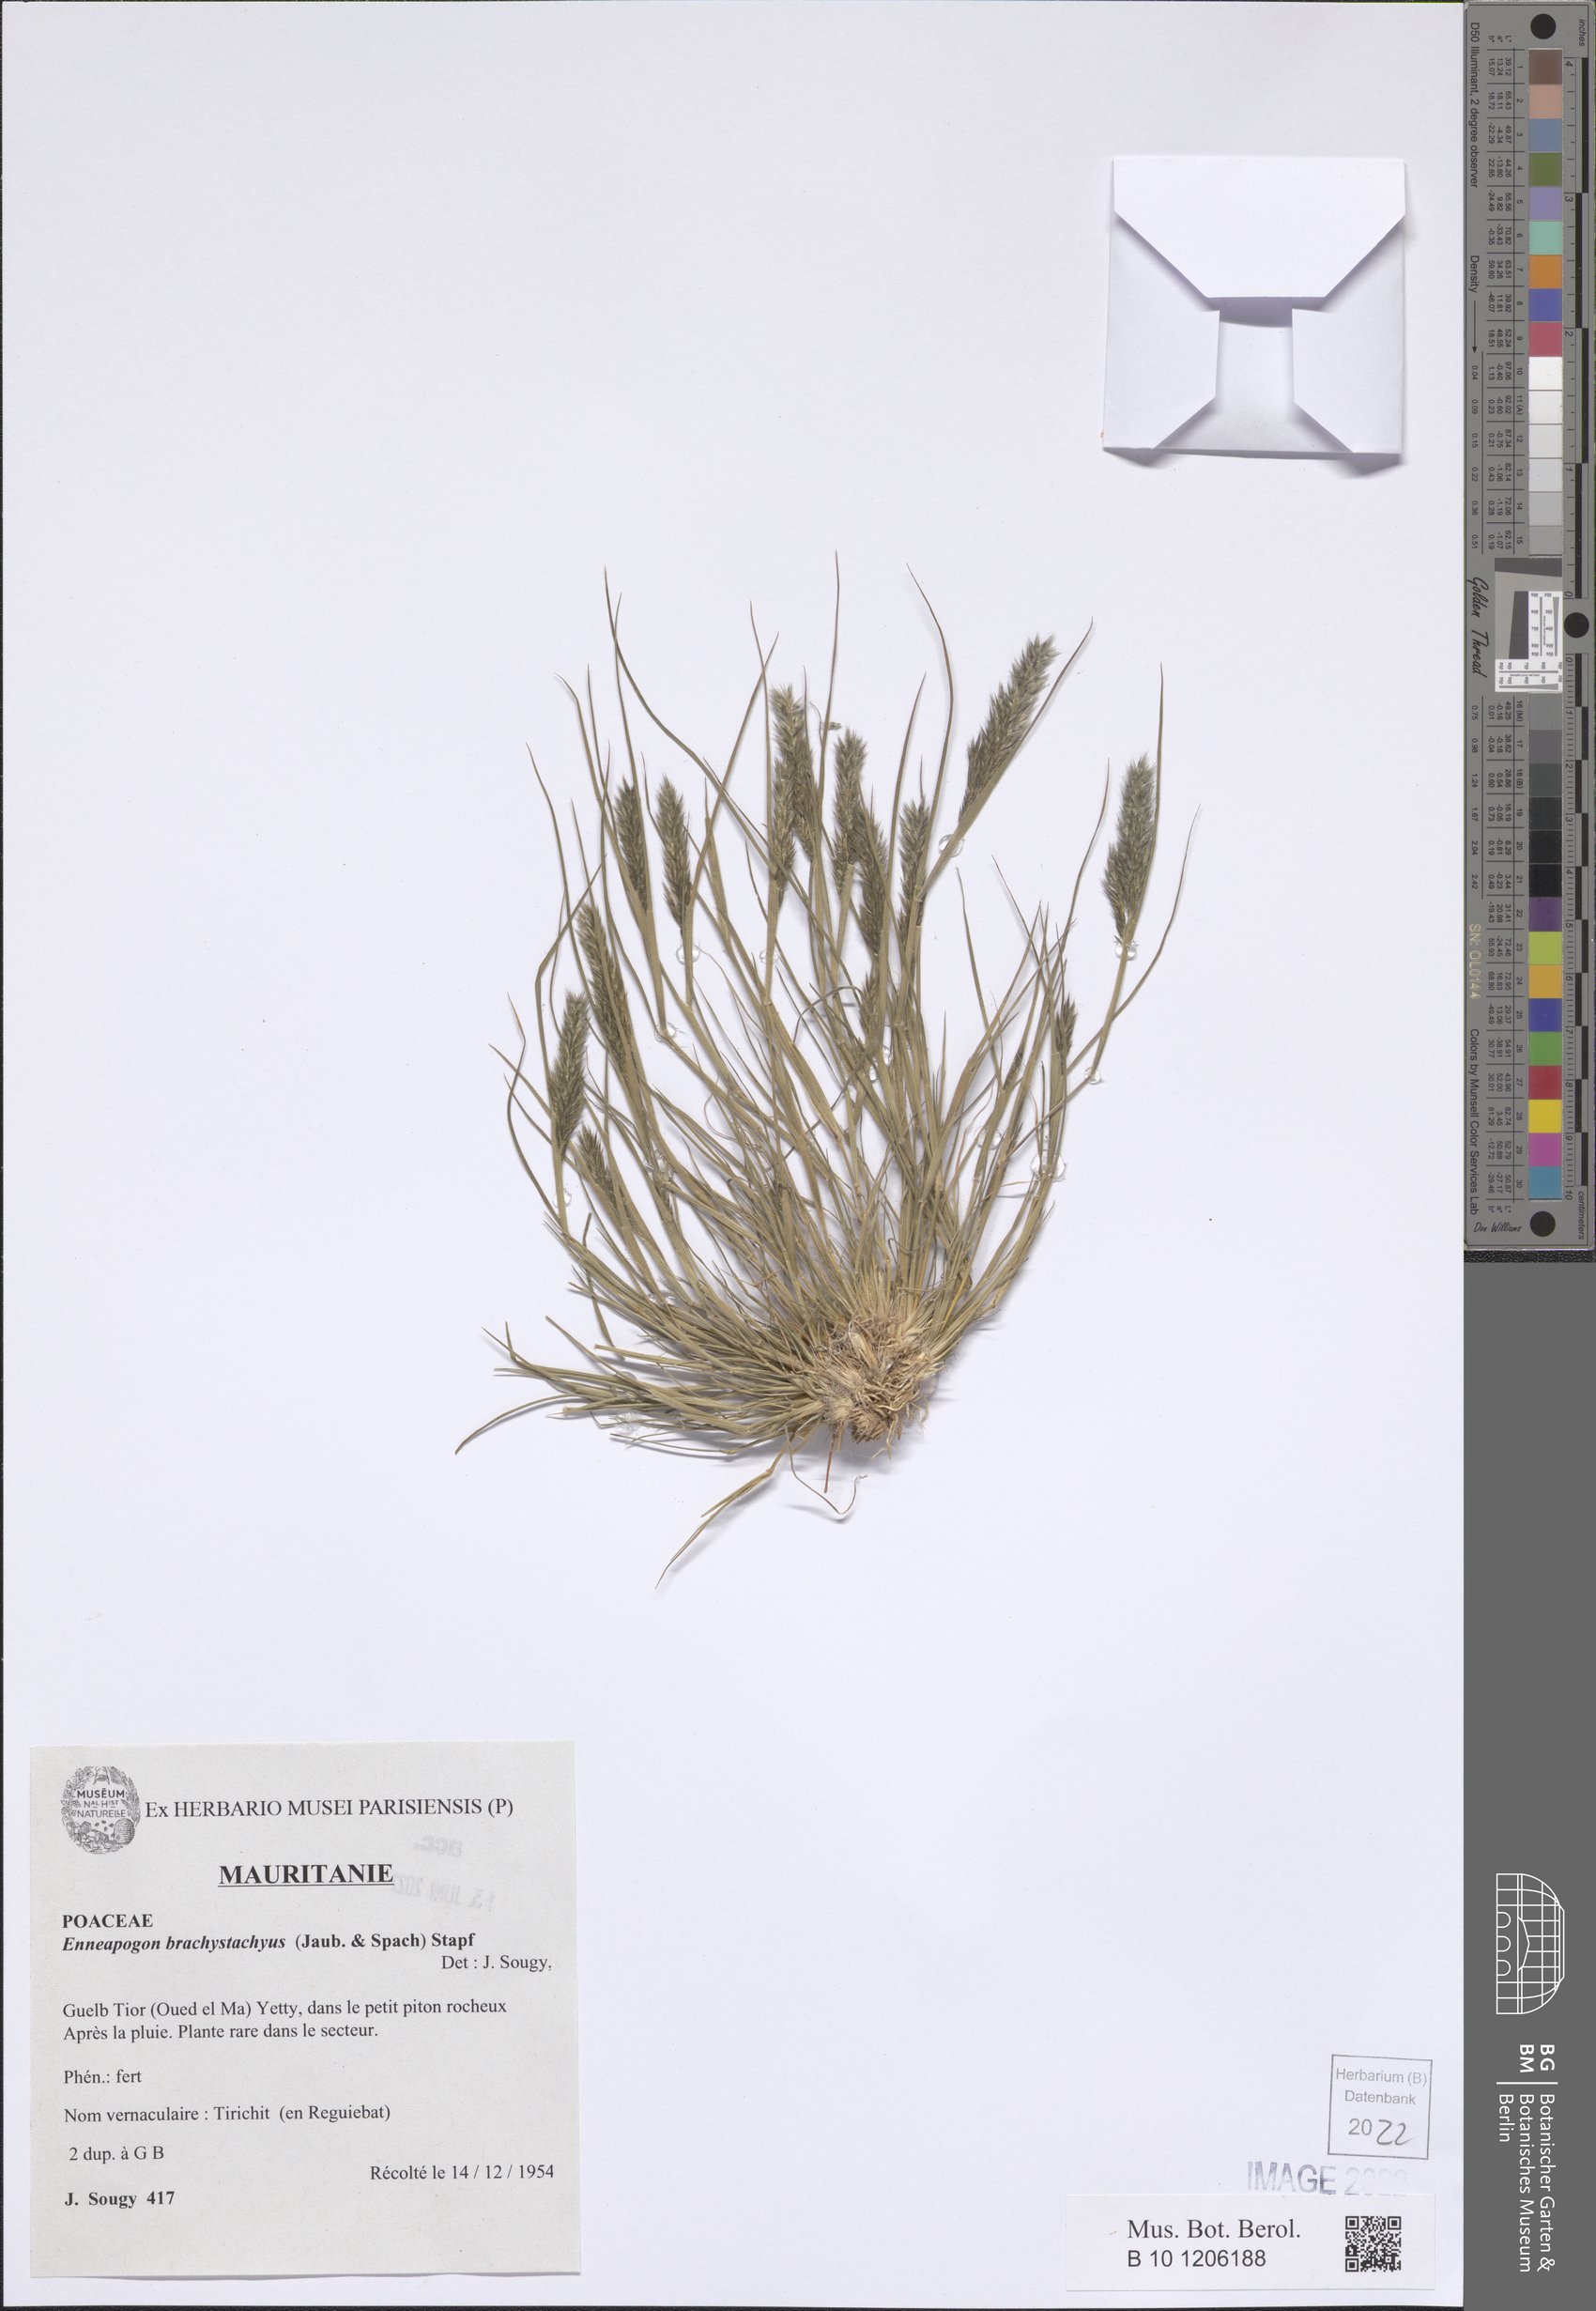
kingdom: Plantae
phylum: Tracheophyta
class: Liliopsida
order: Poales
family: Poaceae
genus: Enneapogon
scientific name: Enneapogon desvauxii
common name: Feather pappus grass
